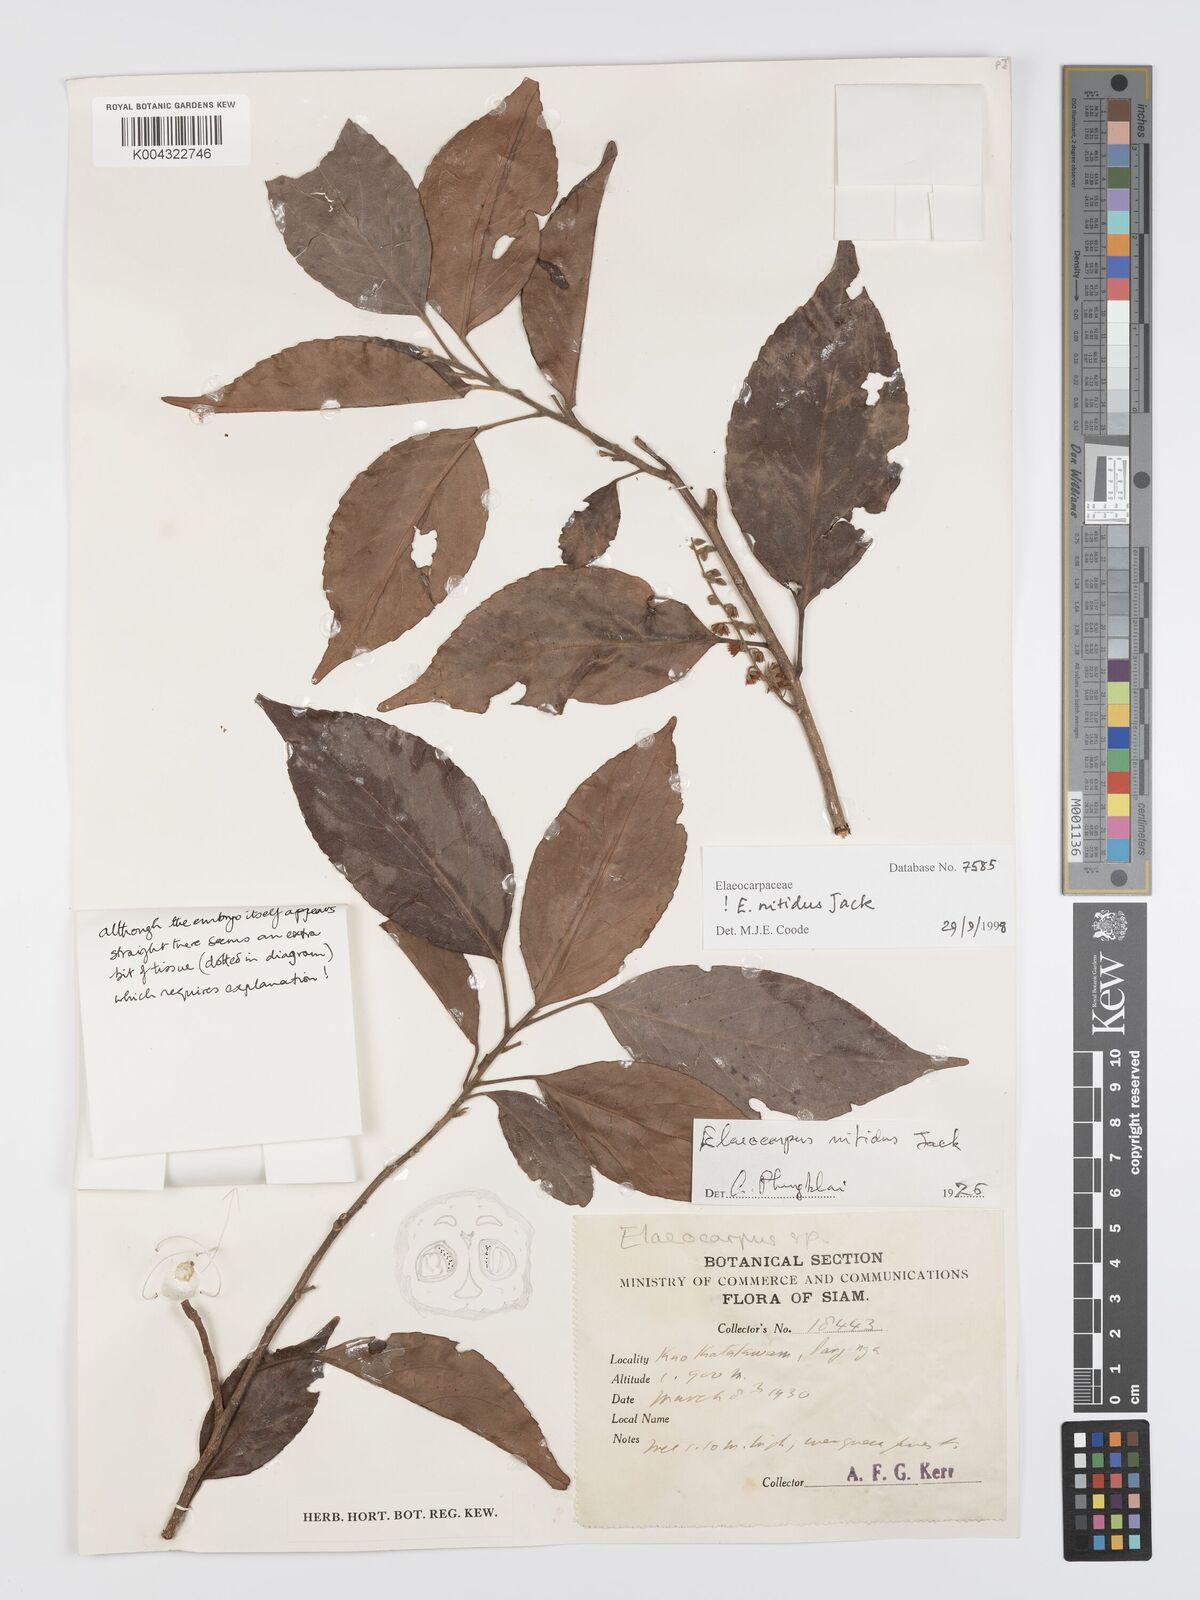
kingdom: Plantae
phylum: Tracheophyta
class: Magnoliopsida
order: Oxalidales
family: Elaeocarpaceae
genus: Elaeocarpus
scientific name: Elaeocarpus nitidus
